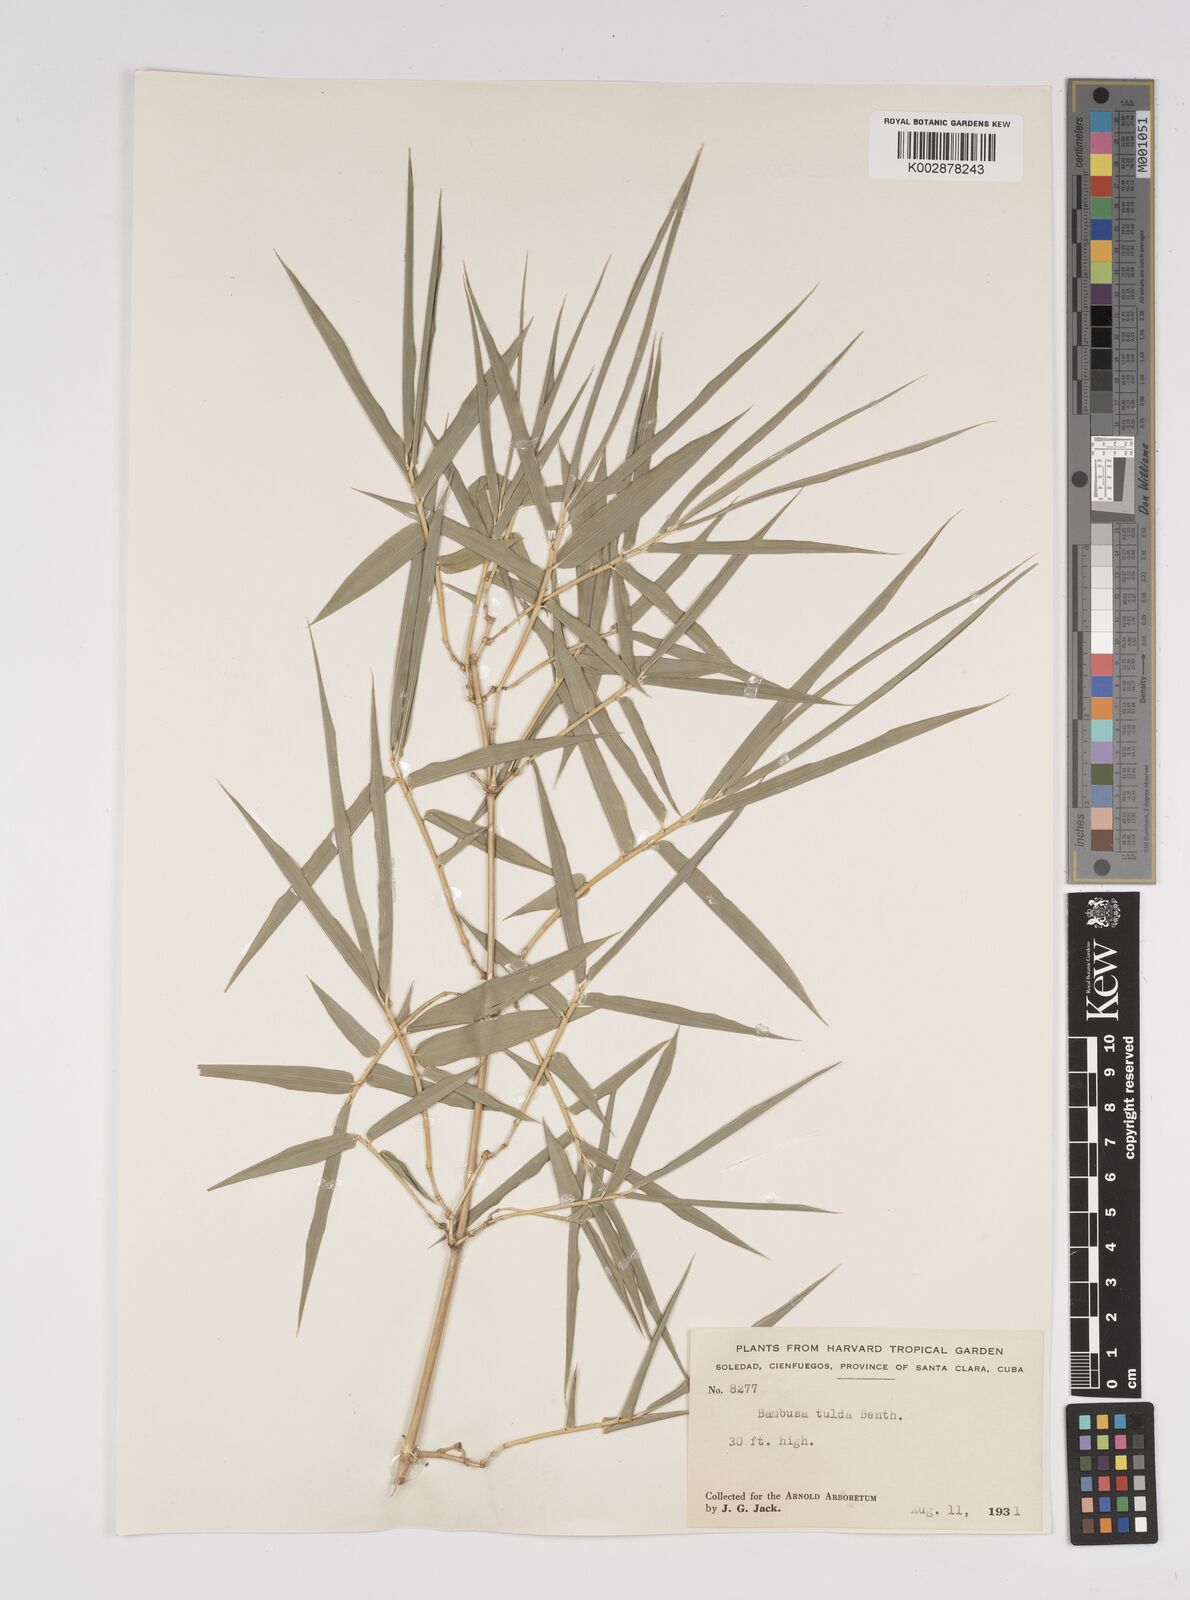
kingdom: Plantae
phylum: Tracheophyta
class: Liliopsida
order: Poales
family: Poaceae
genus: Bambusa
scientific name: Bambusa tuldoides
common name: Verdant bamboo
